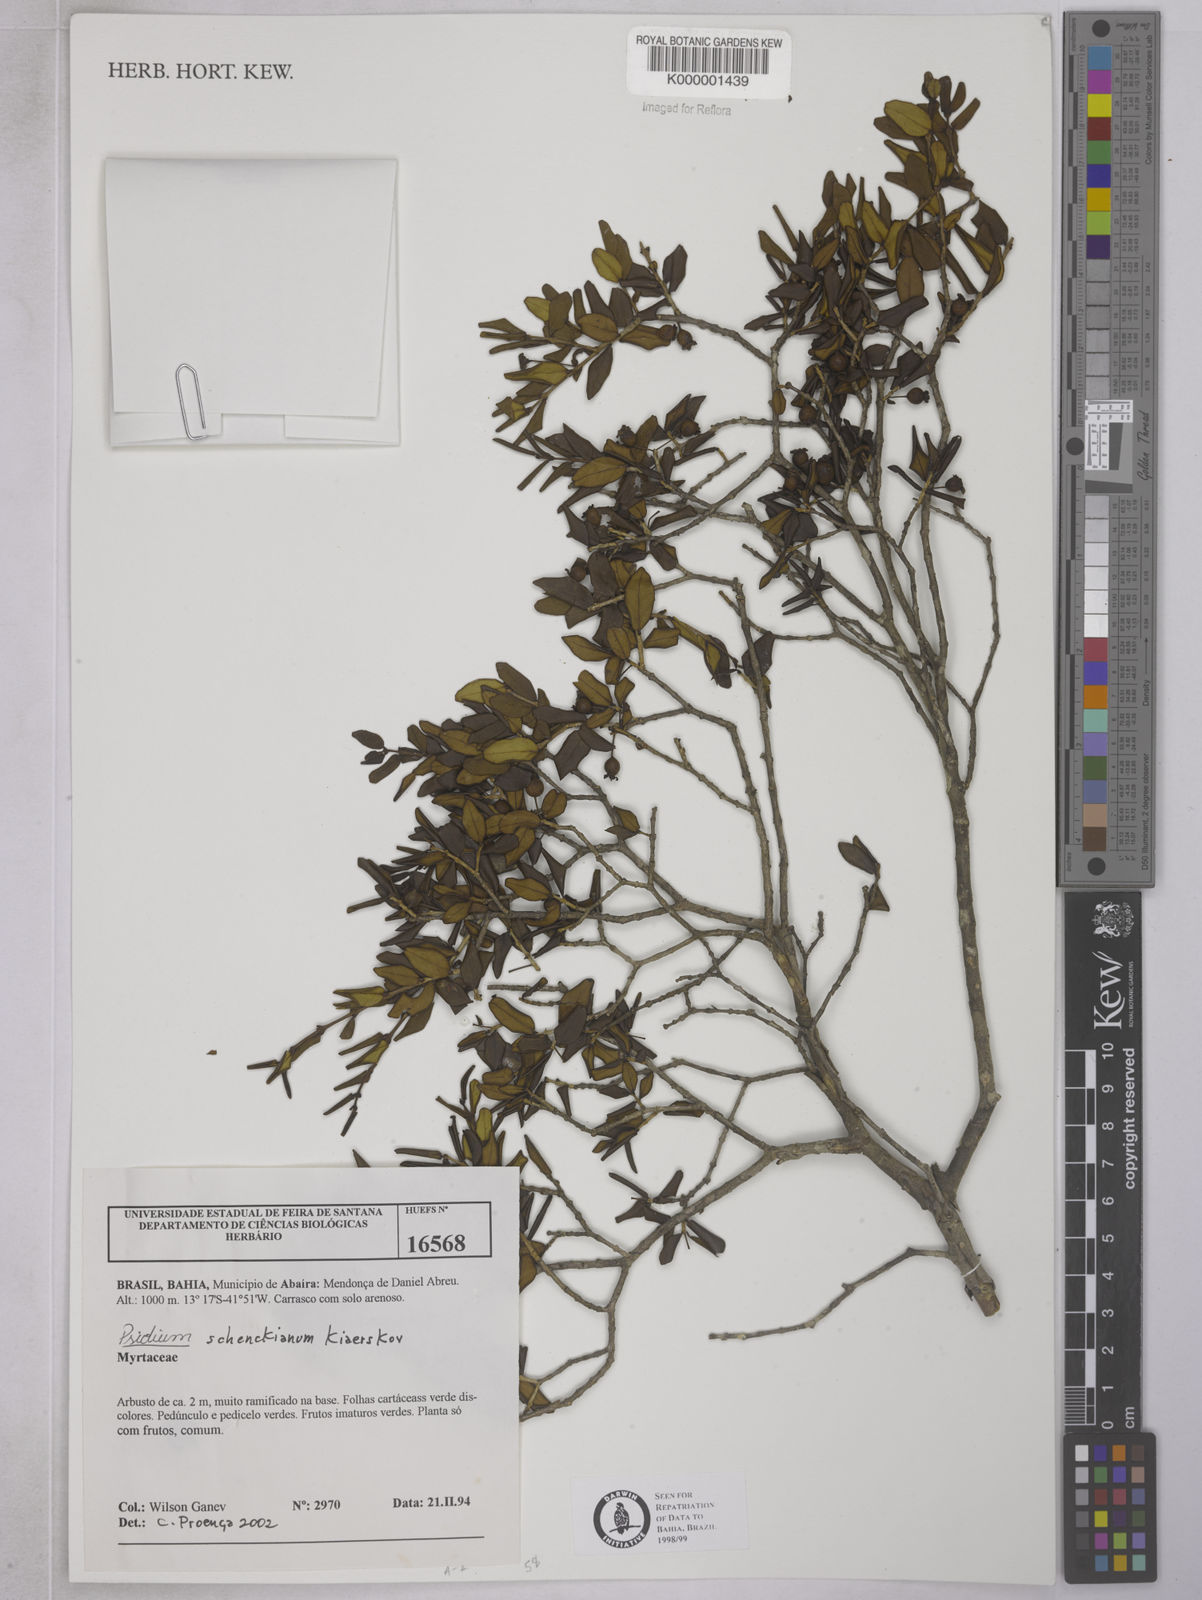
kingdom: Plantae
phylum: Tracheophyta
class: Magnoliopsida
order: Myrtales
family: Myrtaceae
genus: Psidium
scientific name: Psidium
